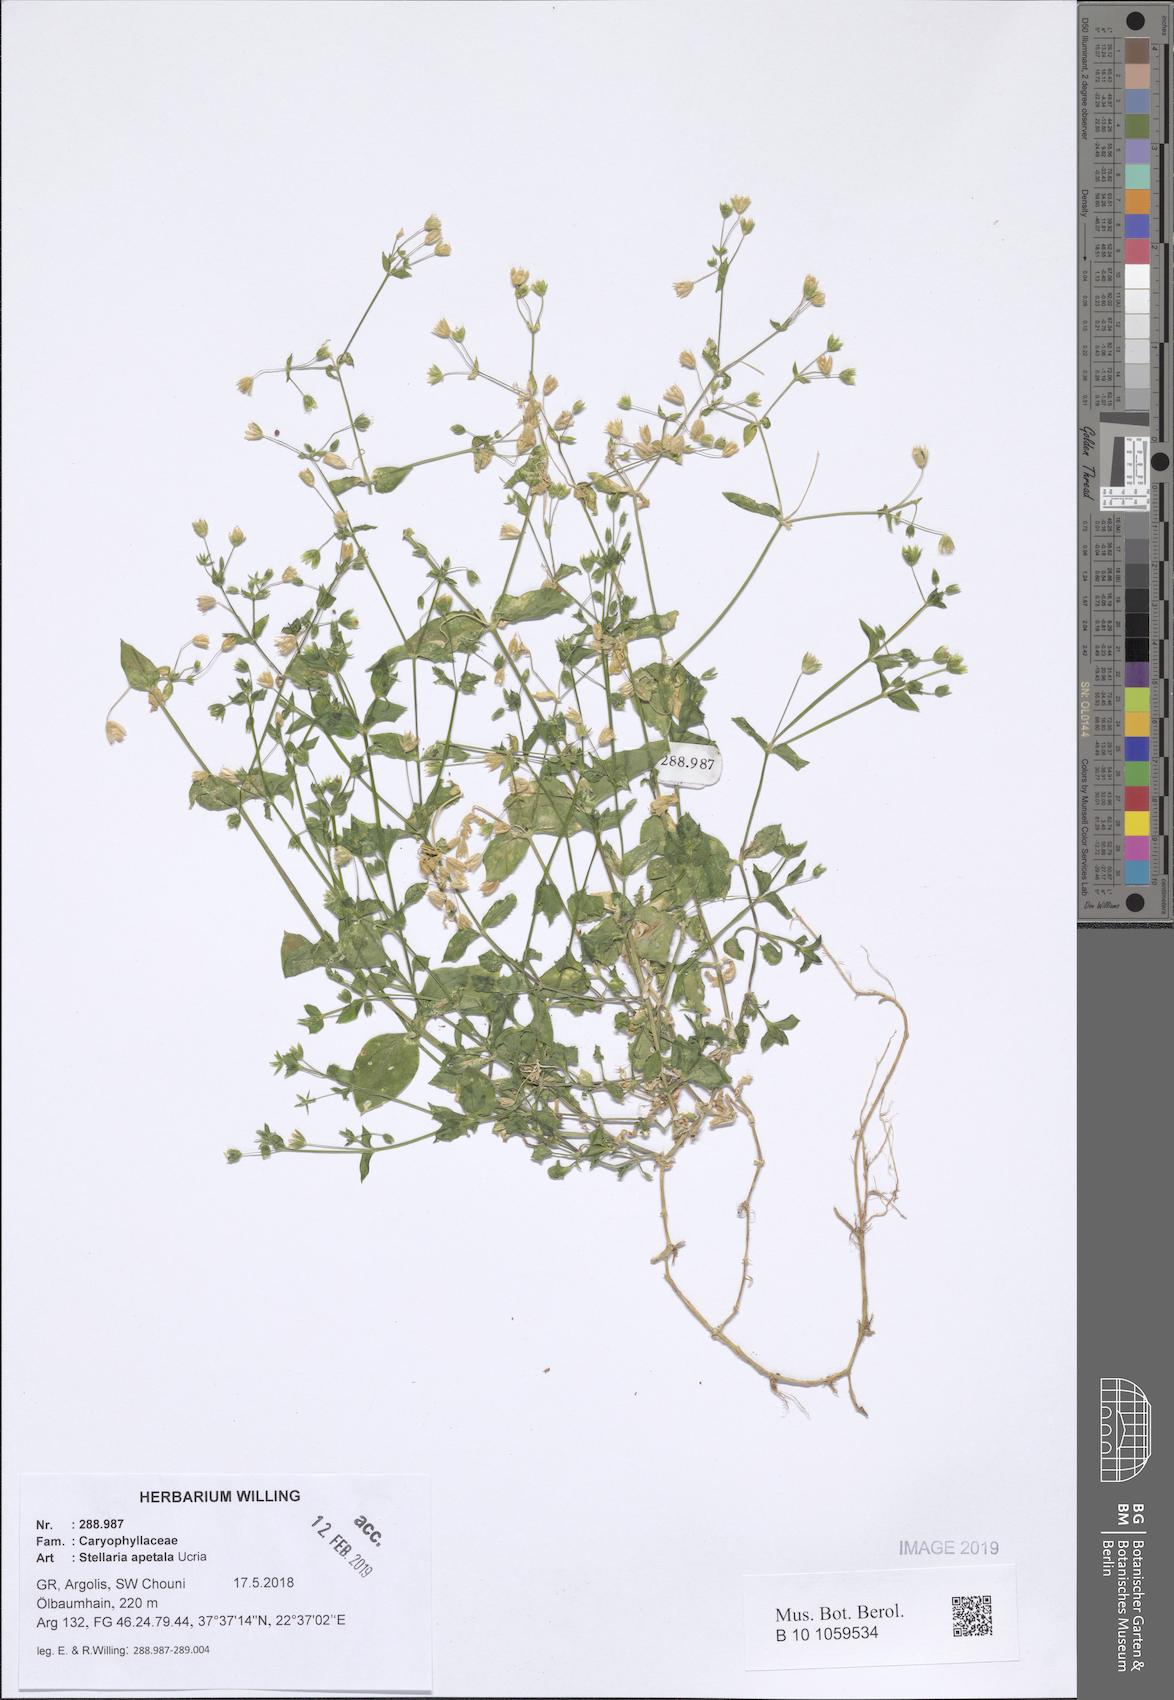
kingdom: Plantae
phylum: Tracheophyta
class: Magnoliopsida
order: Caryophyllales
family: Caryophyllaceae
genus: Stellaria
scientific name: Stellaria apetala
